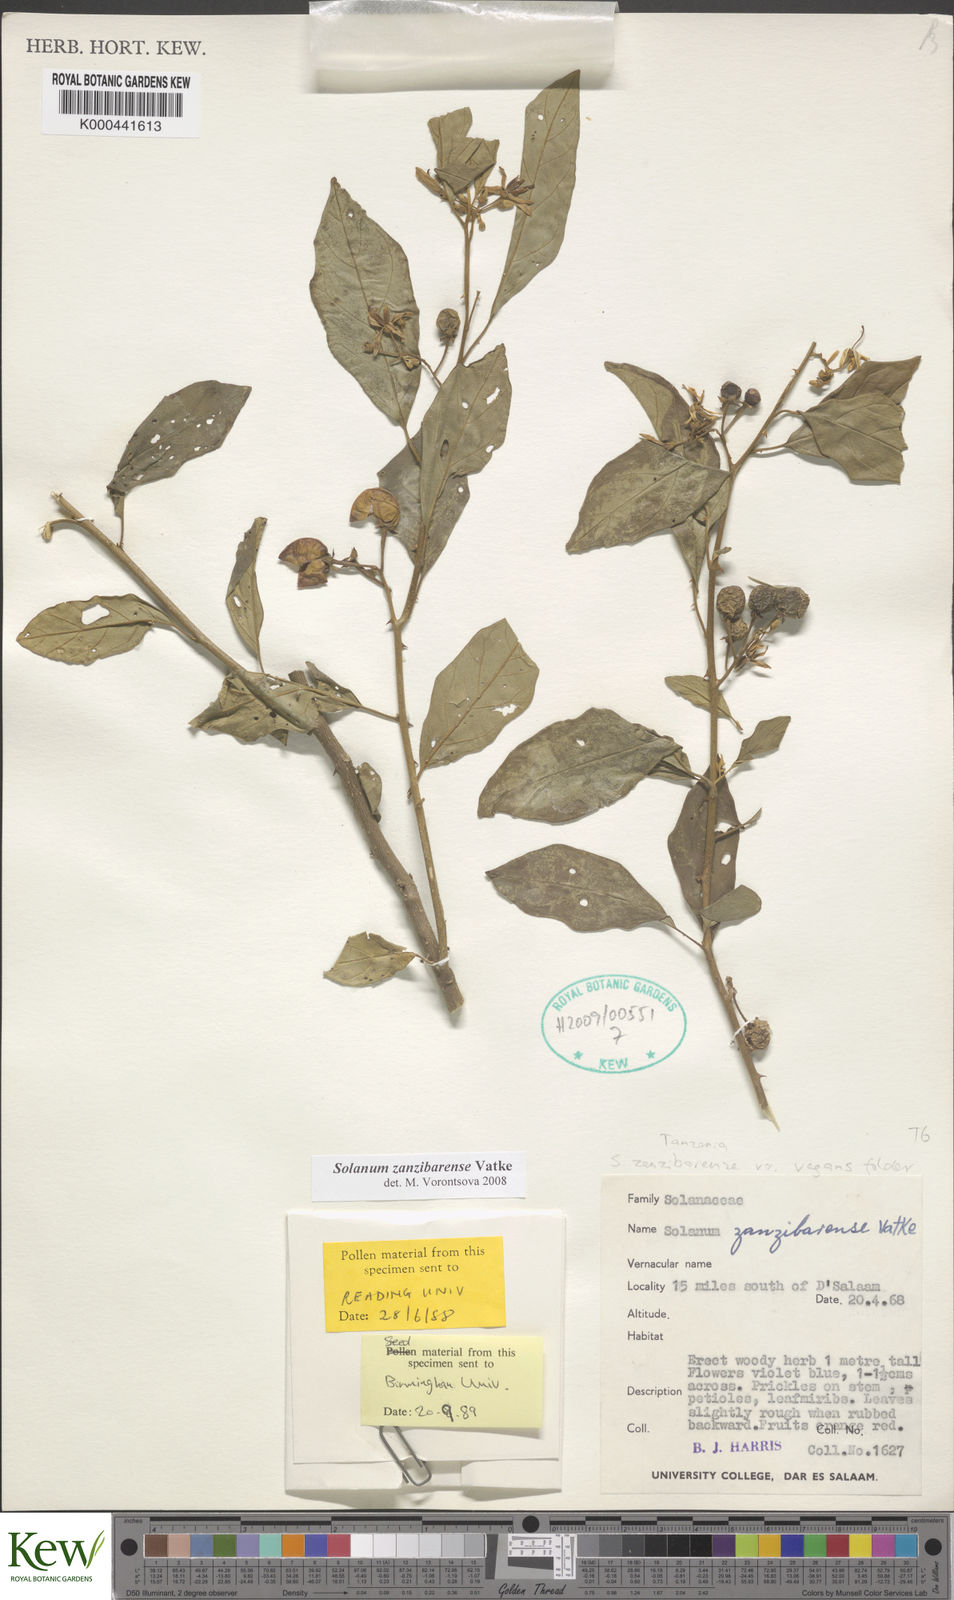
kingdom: Plantae
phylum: Tracheophyta
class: Magnoliopsida
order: Solanales
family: Solanaceae
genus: Solanum
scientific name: Solanum zanzibarense
